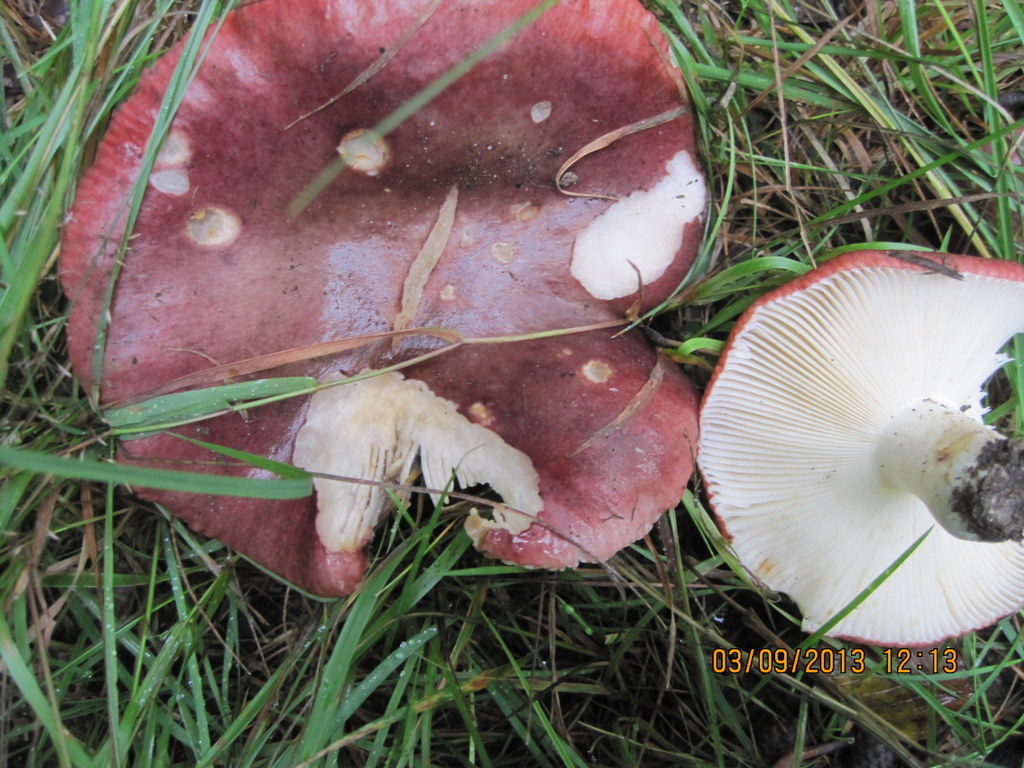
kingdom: Fungi
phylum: Basidiomycota
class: Agaricomycetes
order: Russulales
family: Russulaceae
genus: Russula
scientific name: Russula atropurpurea
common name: purpurbroget skørhat
